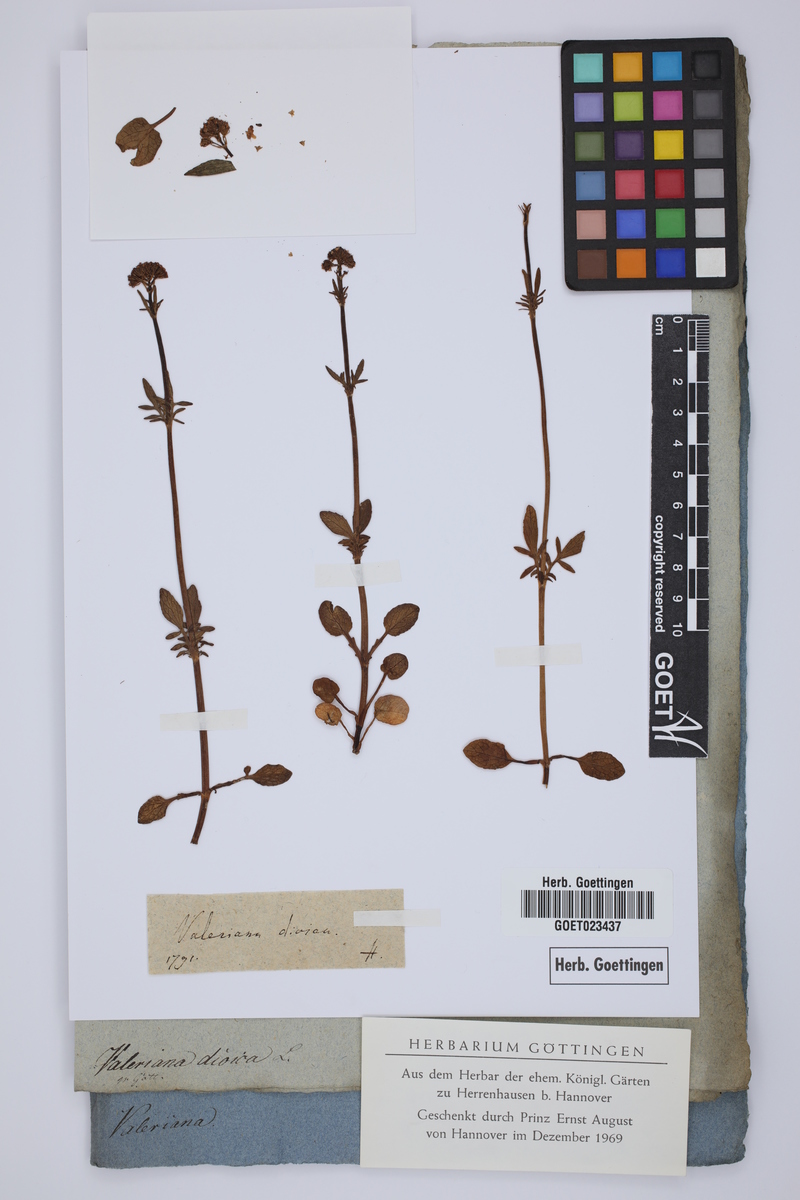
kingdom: Plantae
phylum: Tracheophyta
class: Magnoliopsida
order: Dipsacales
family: Caprifoliaceae
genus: Valeriana
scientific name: Valeriana dioica
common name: Marsh valerian
